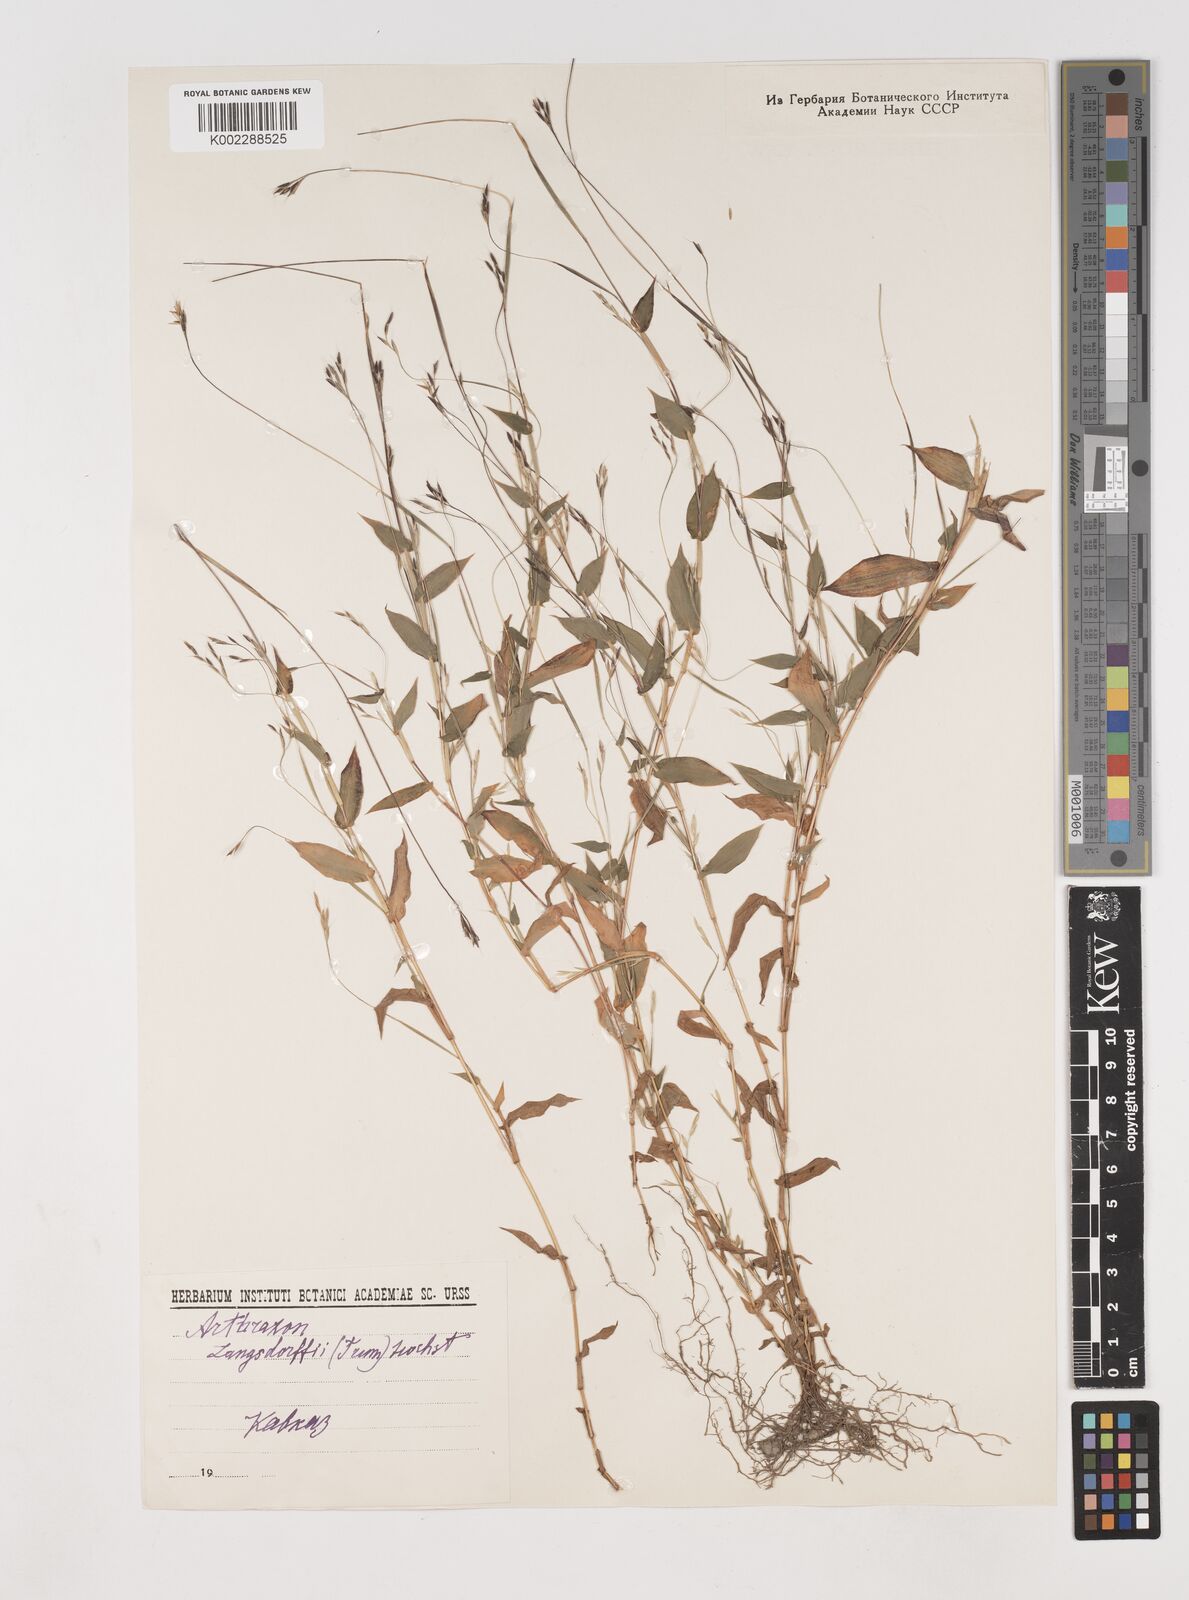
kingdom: Plantae
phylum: Tracheophyta
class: Liliopsida
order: Poales
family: Poaceae
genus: Arthraxon
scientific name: Arthraxon hispidus
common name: Small carpgrass
